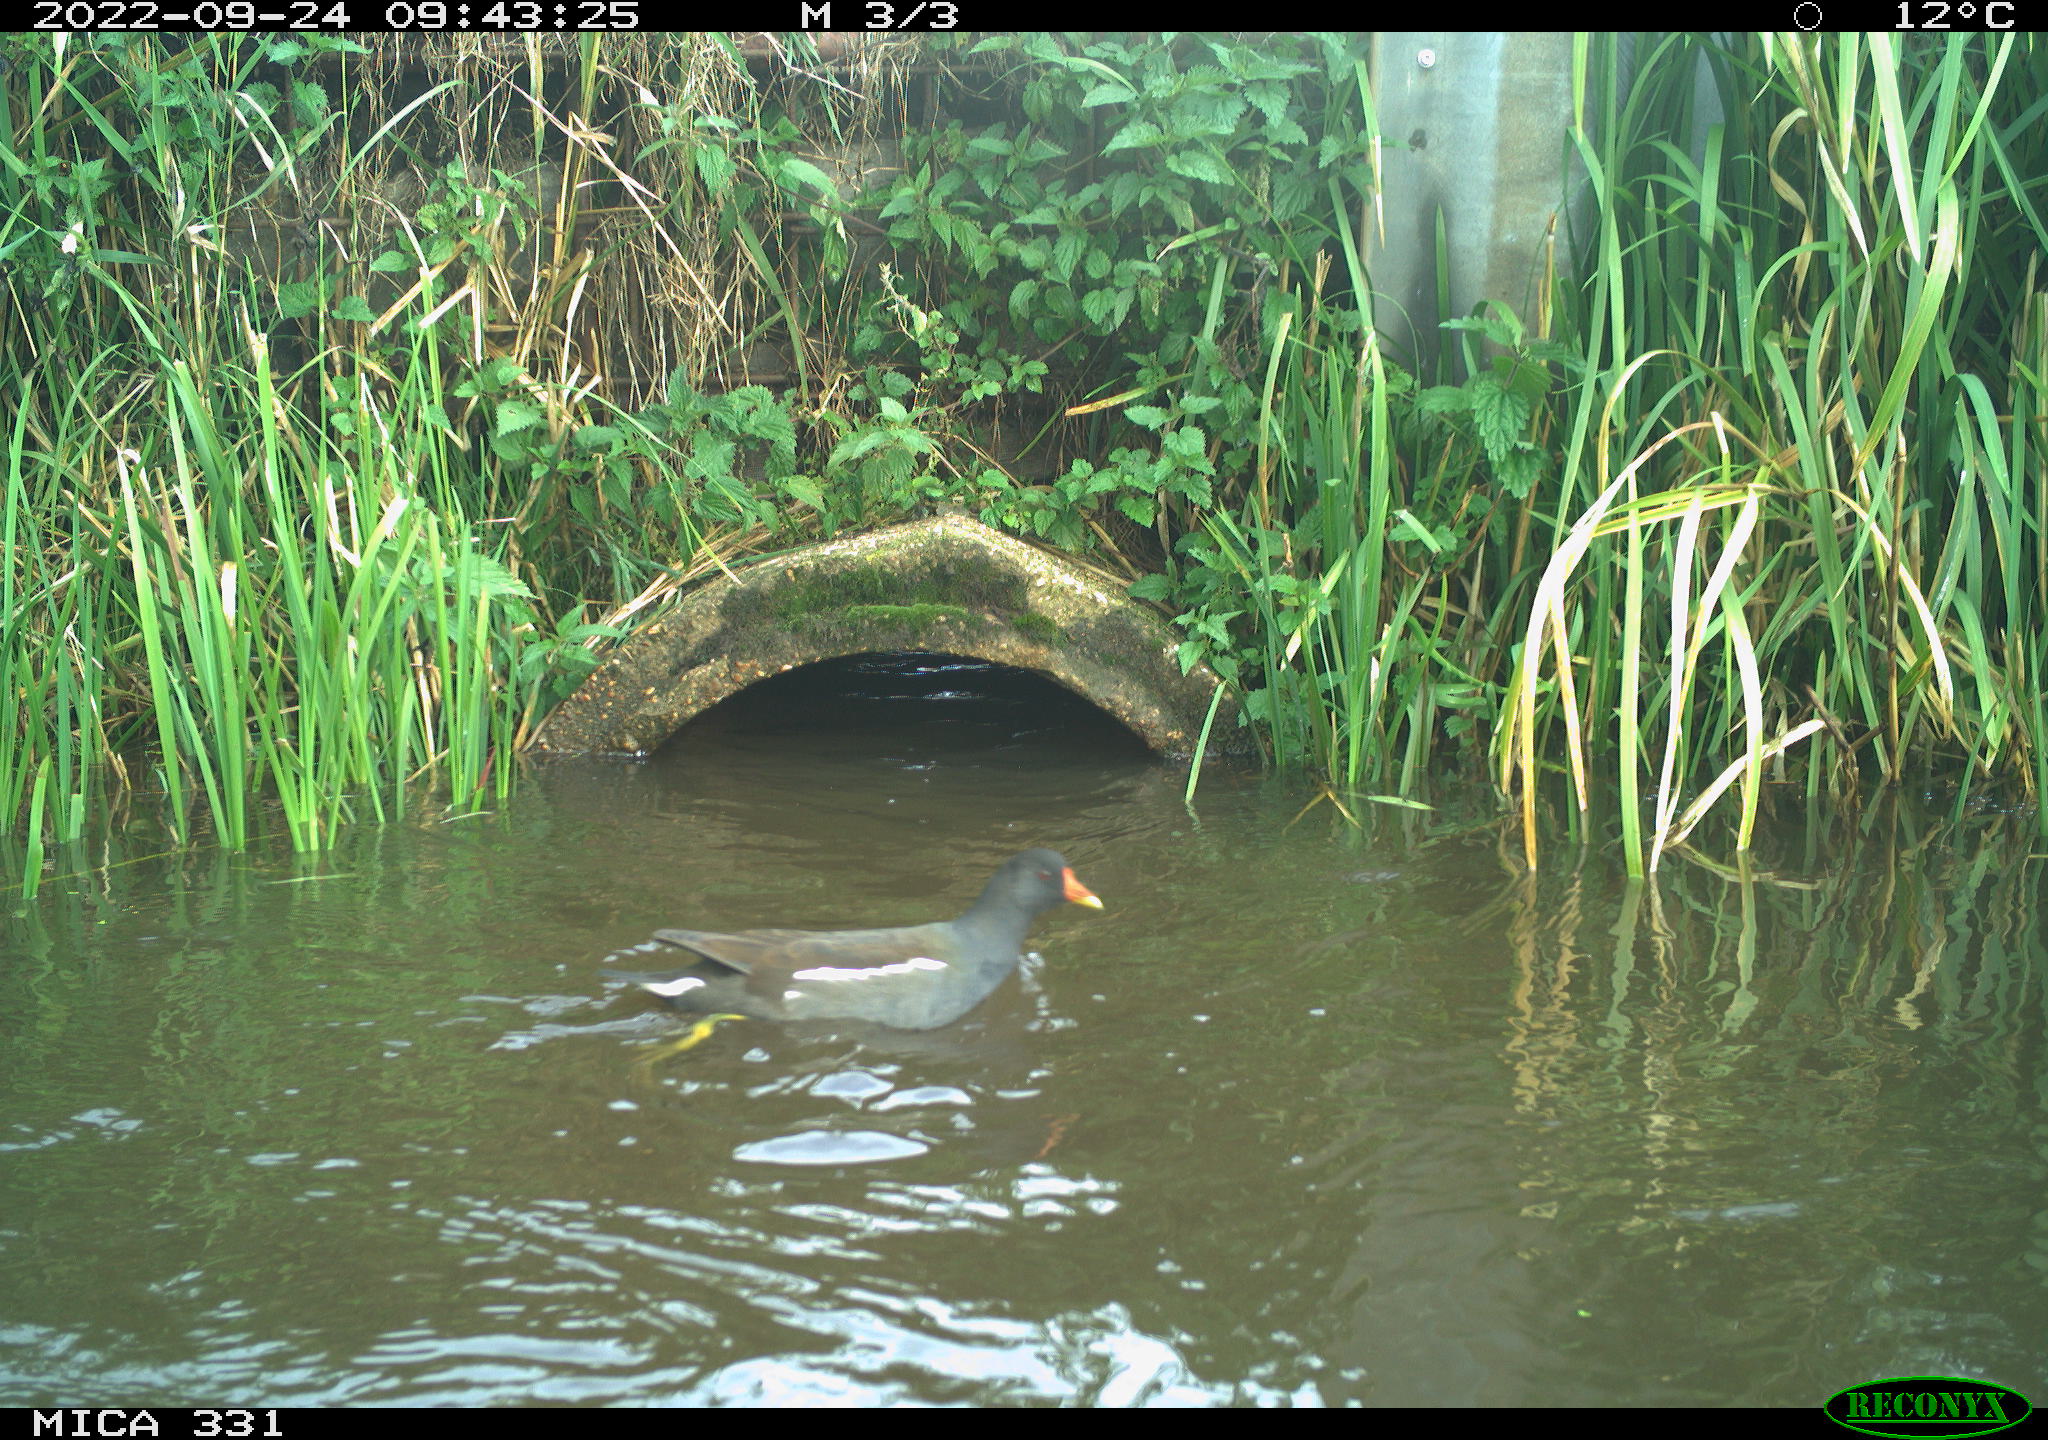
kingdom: Animalia
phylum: Chordata
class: Aves
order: Gruiformes
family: Rallidae
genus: Gallinula
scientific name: Gallinula chloropus
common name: Common moorhen
